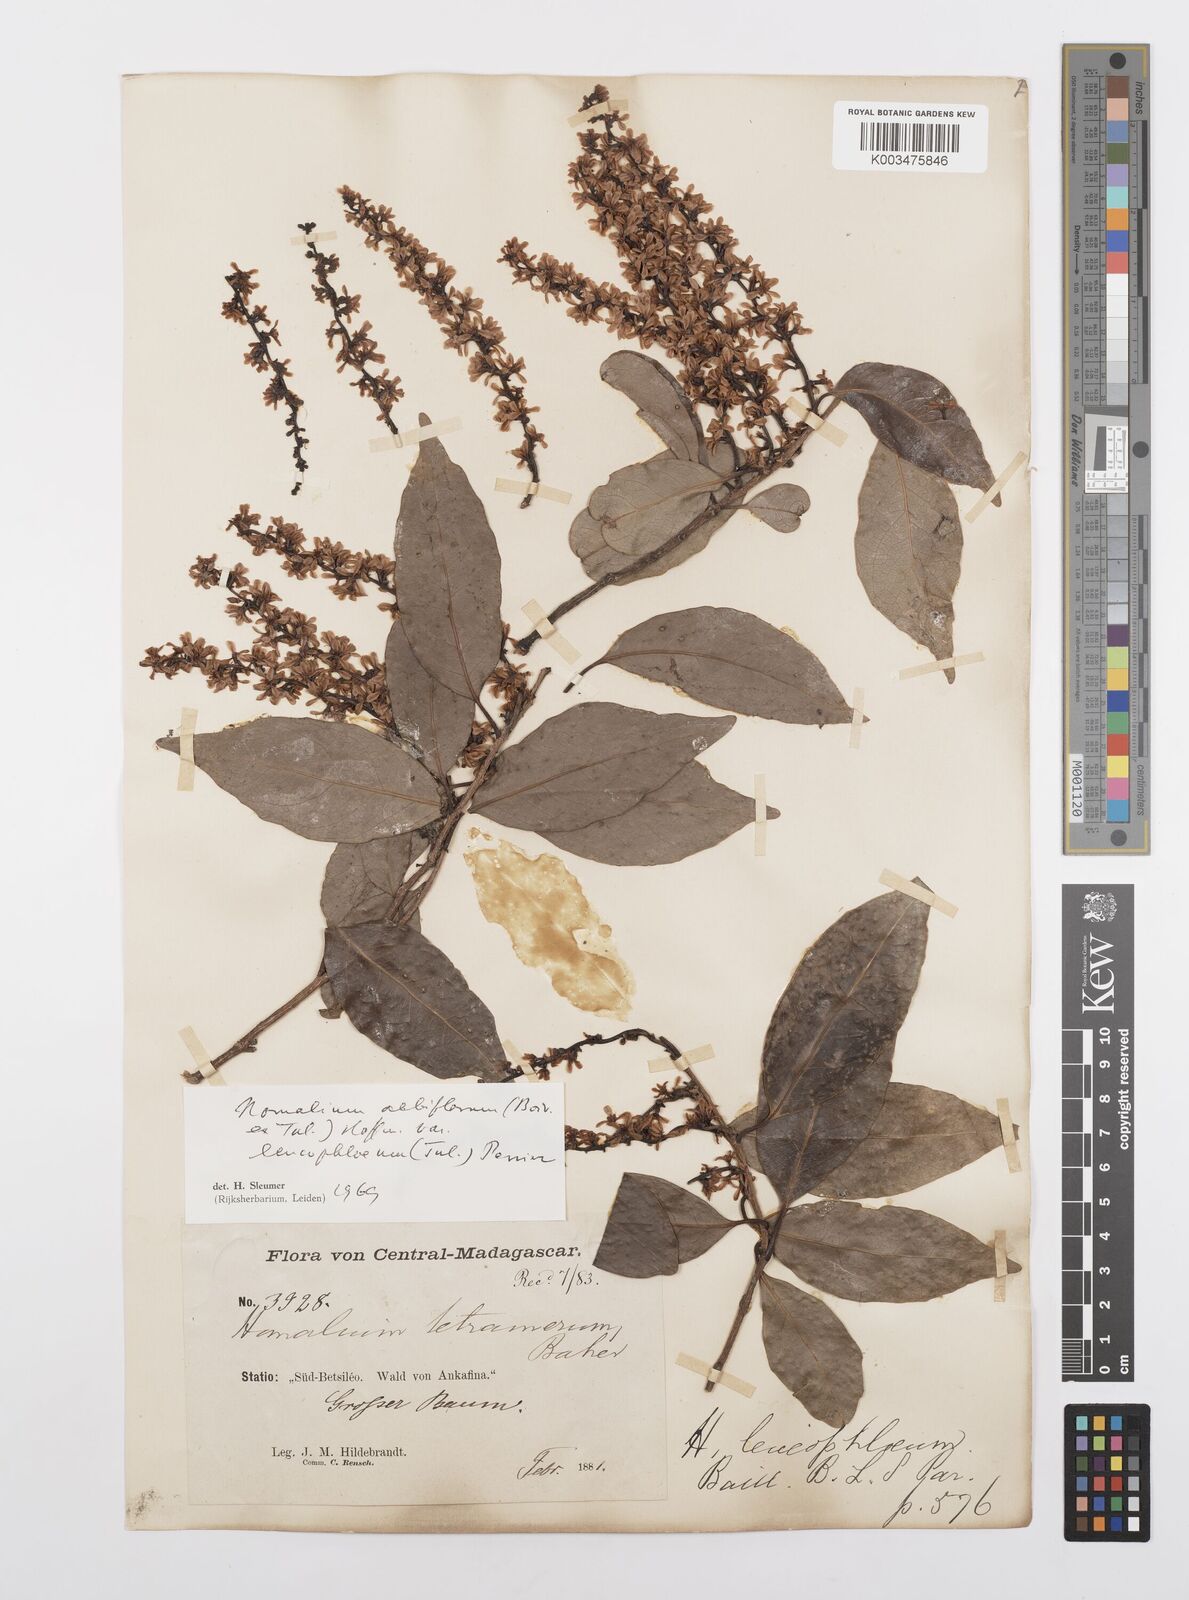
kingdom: Plantae
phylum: Tracheophyta
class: Liliopsida
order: Poales
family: Poaceae
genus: Imperata
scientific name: Imperata contracta
